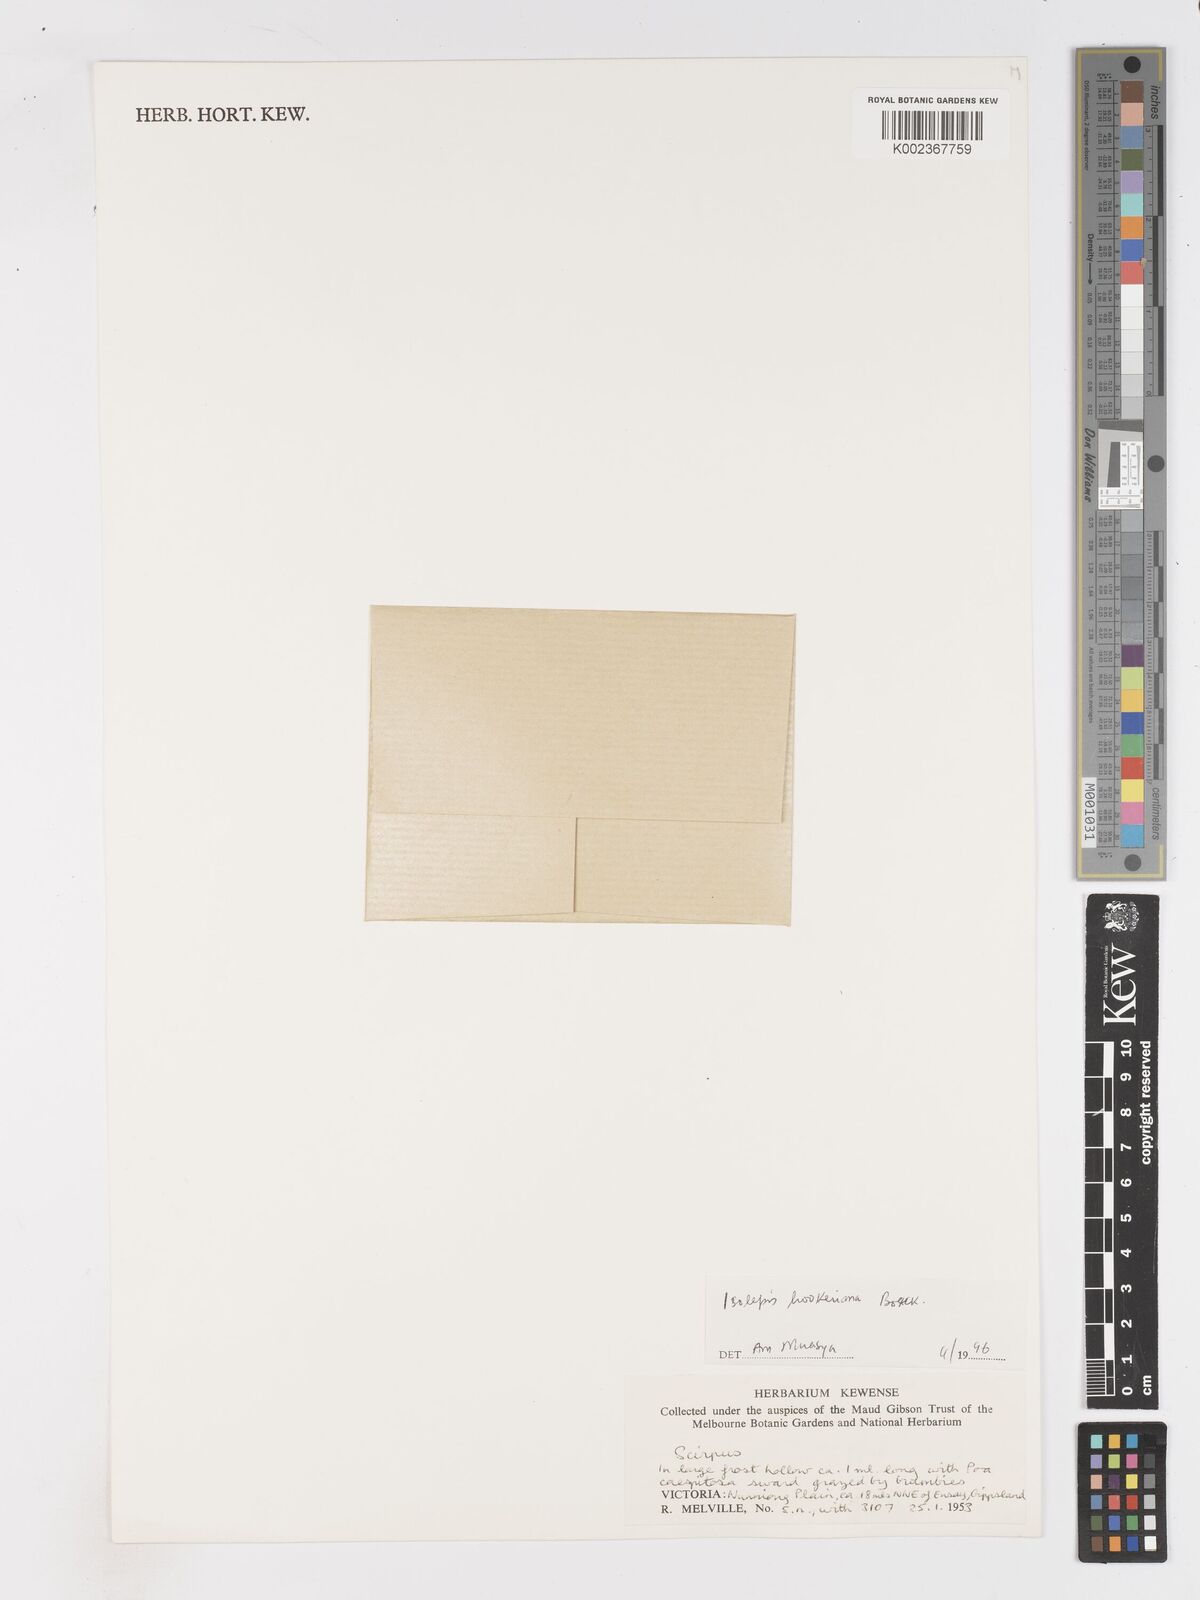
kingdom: Plantae
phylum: Tracheophyta
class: Liliopsida
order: Poales
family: Cyperaceae
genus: Isolepis
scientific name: Isolepis multicaulis
